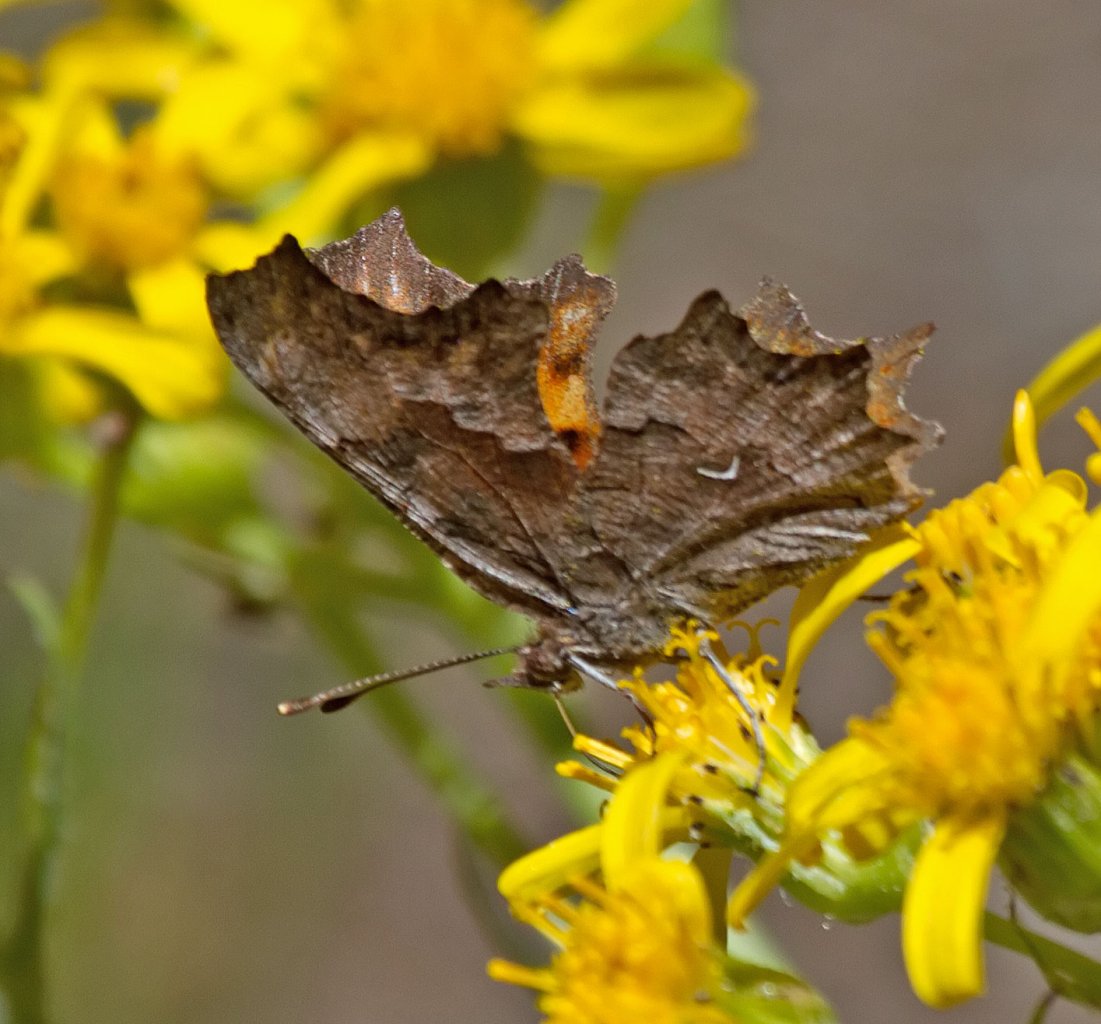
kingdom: Animalia
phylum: Arthropoda
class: Insecta
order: Lepidoptera
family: Nymphalidae
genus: Polygonia
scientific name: Polygonia gracilis
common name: Hoary Comma
